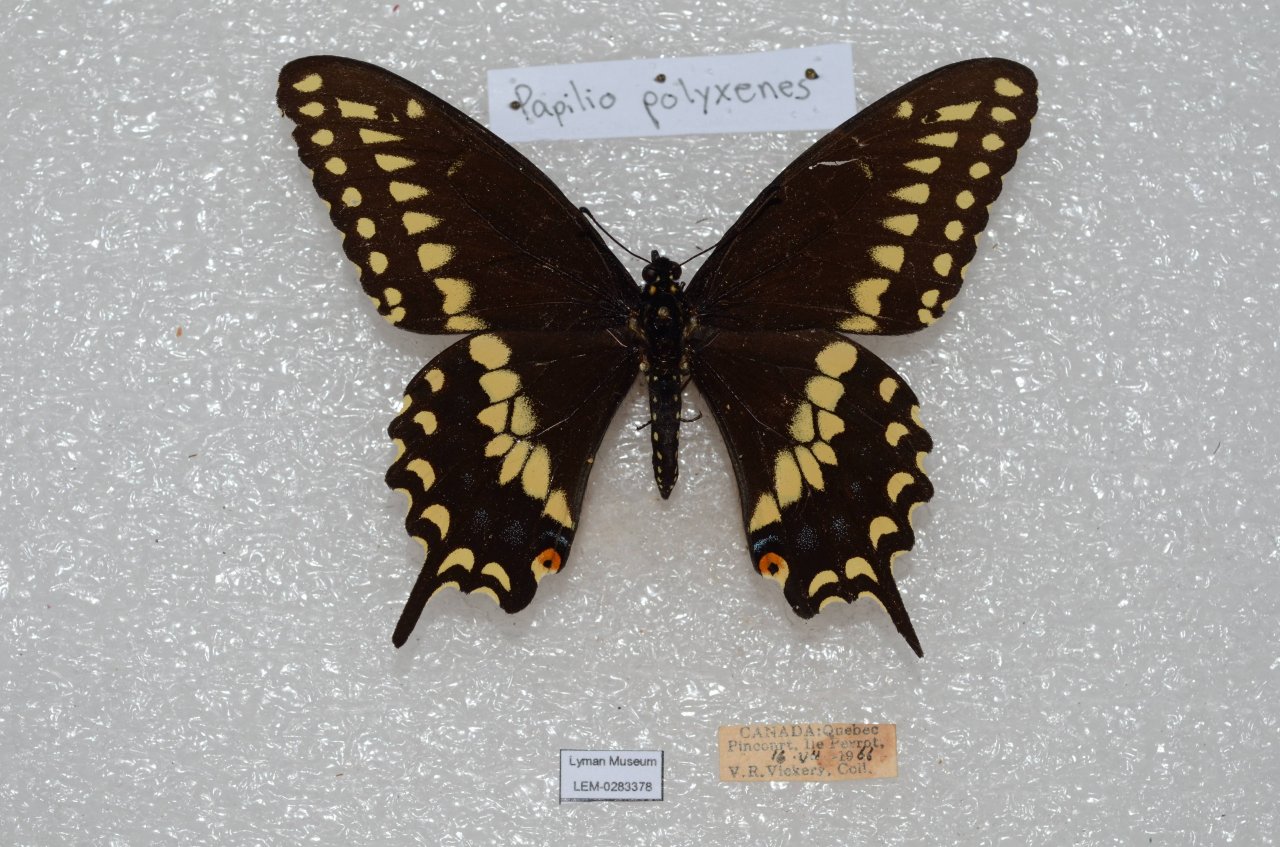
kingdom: Animalia
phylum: Arthropoda
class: Insecta
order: Lepidoptera
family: Papilionidae
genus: Papilio
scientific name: Papilio polyxenes
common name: Black Swallowtail
